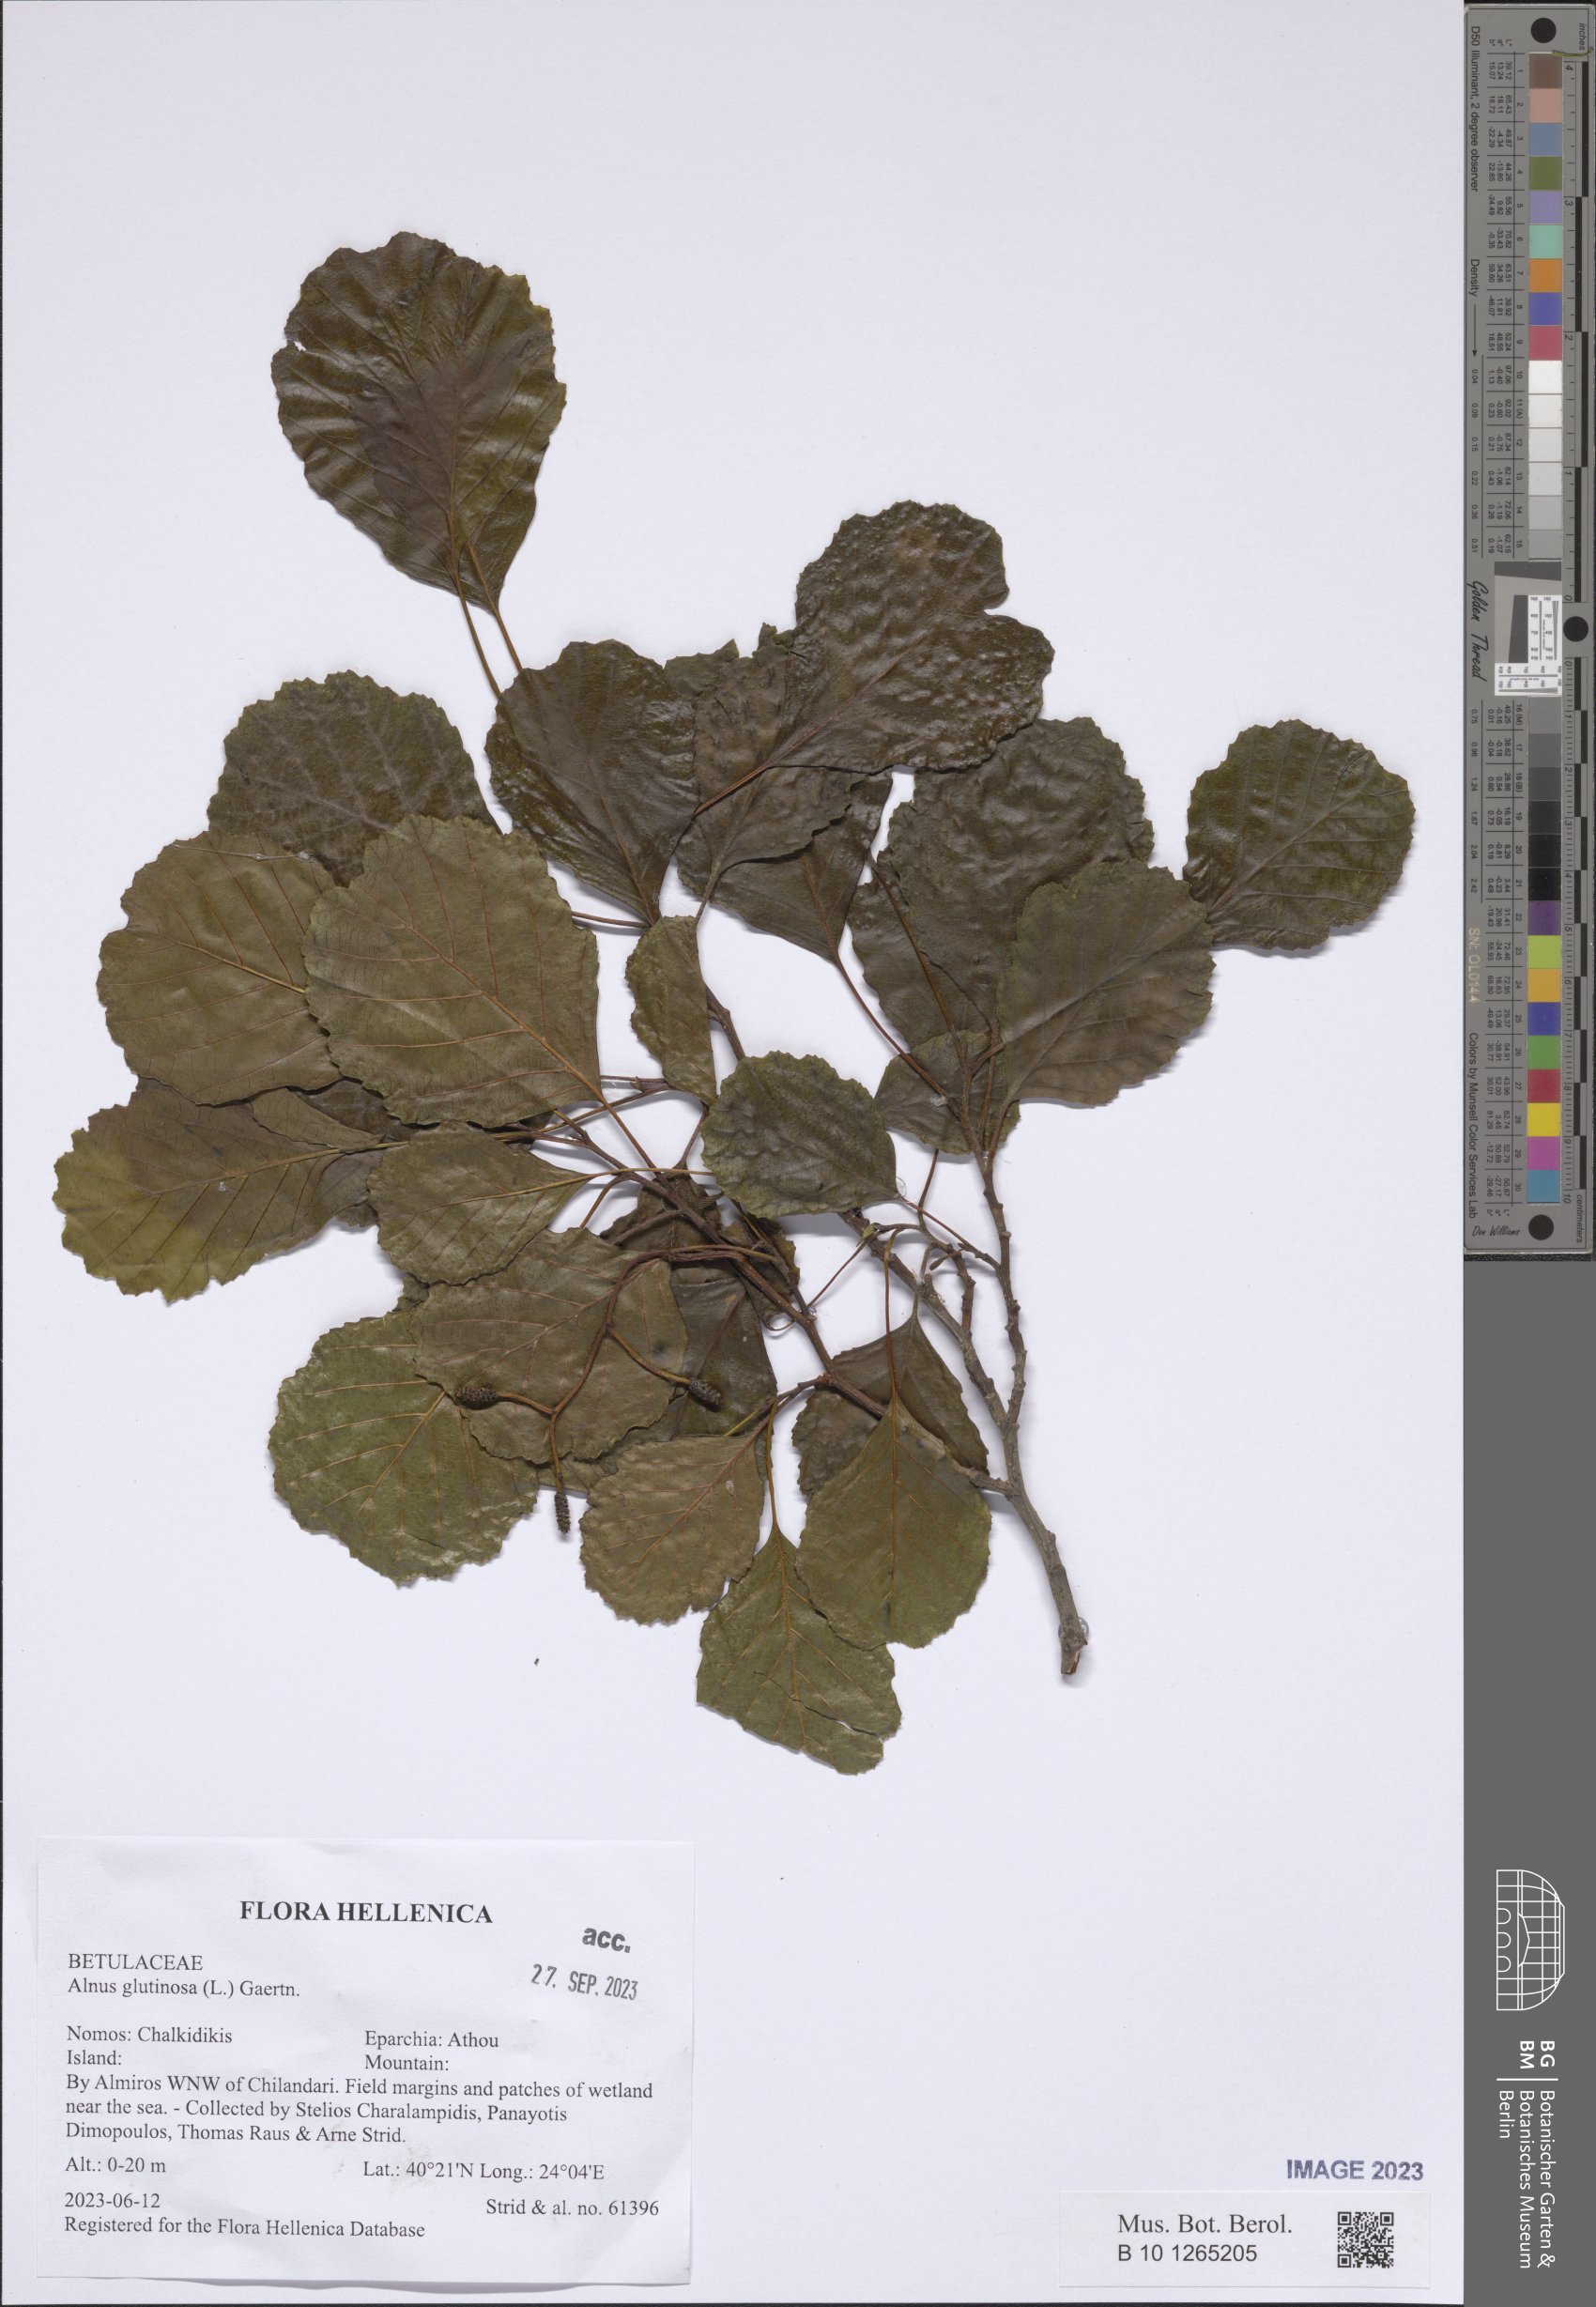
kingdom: Plantae
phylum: Tracheophyta
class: Magnoliopsida
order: Fagales
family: Betulaceae
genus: Alnus
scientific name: Alnus glutinosa
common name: Black alder
